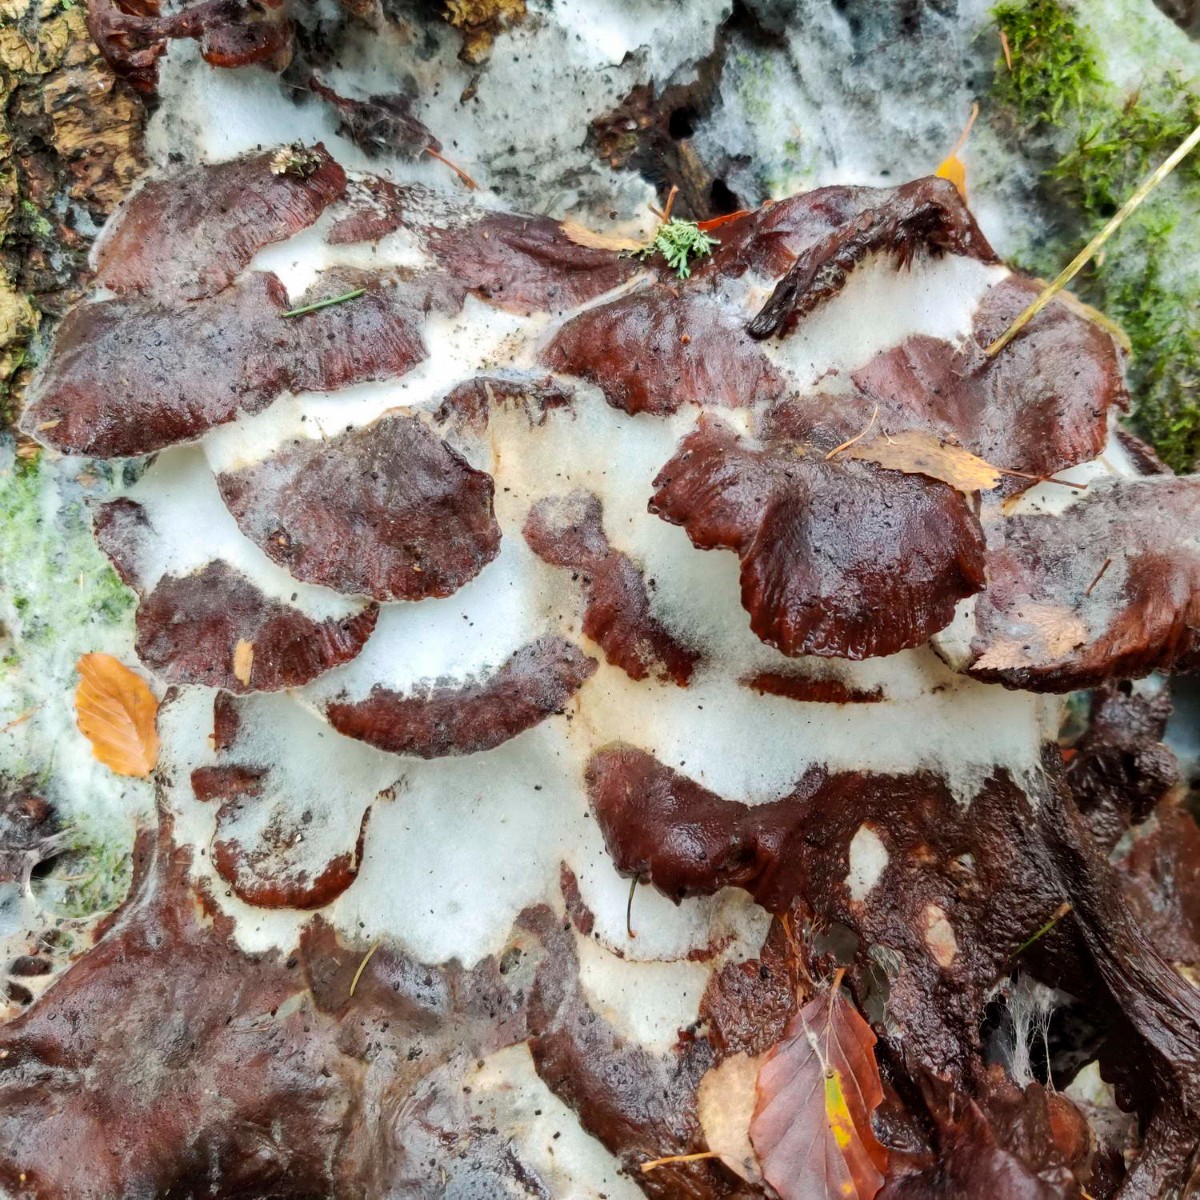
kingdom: Fungi
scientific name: Fungi
